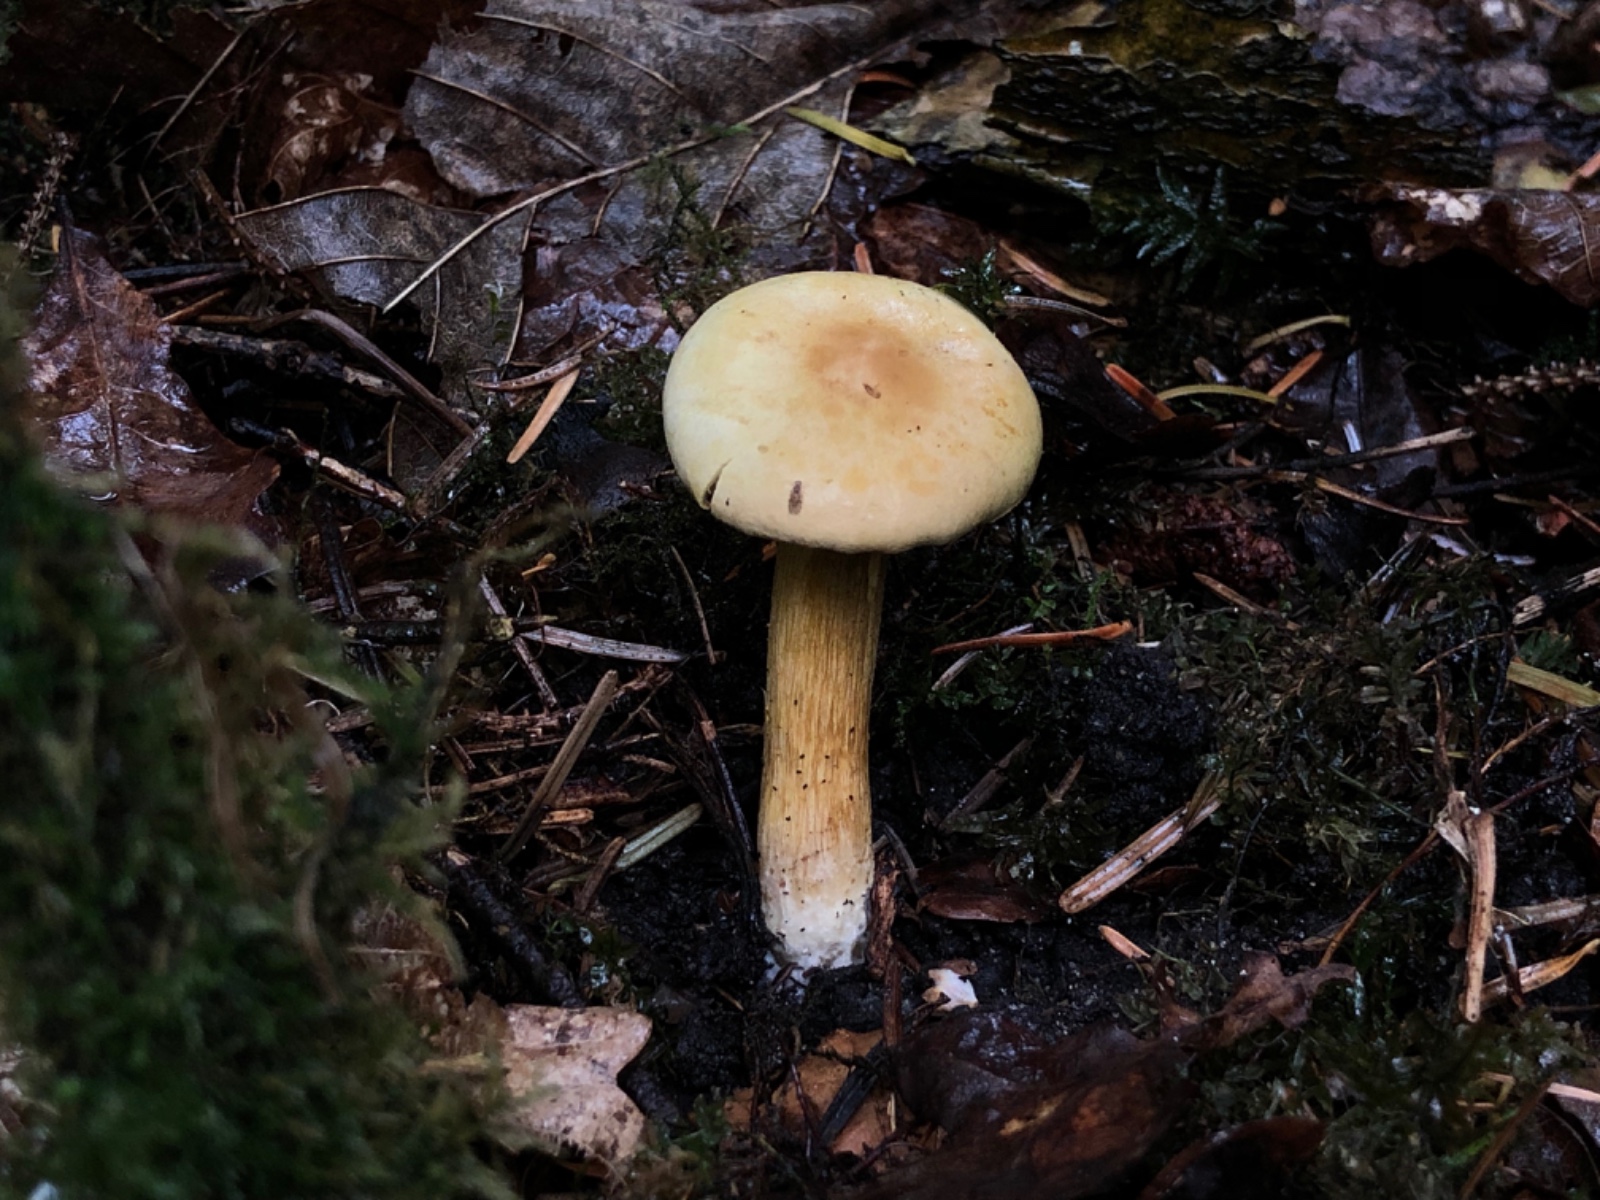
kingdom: Fungi
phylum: Basidiomycota
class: Agaricomycetes
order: Agaricales
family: Tricholomataceae
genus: Tricholoma
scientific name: Tricholoma sulphureum
